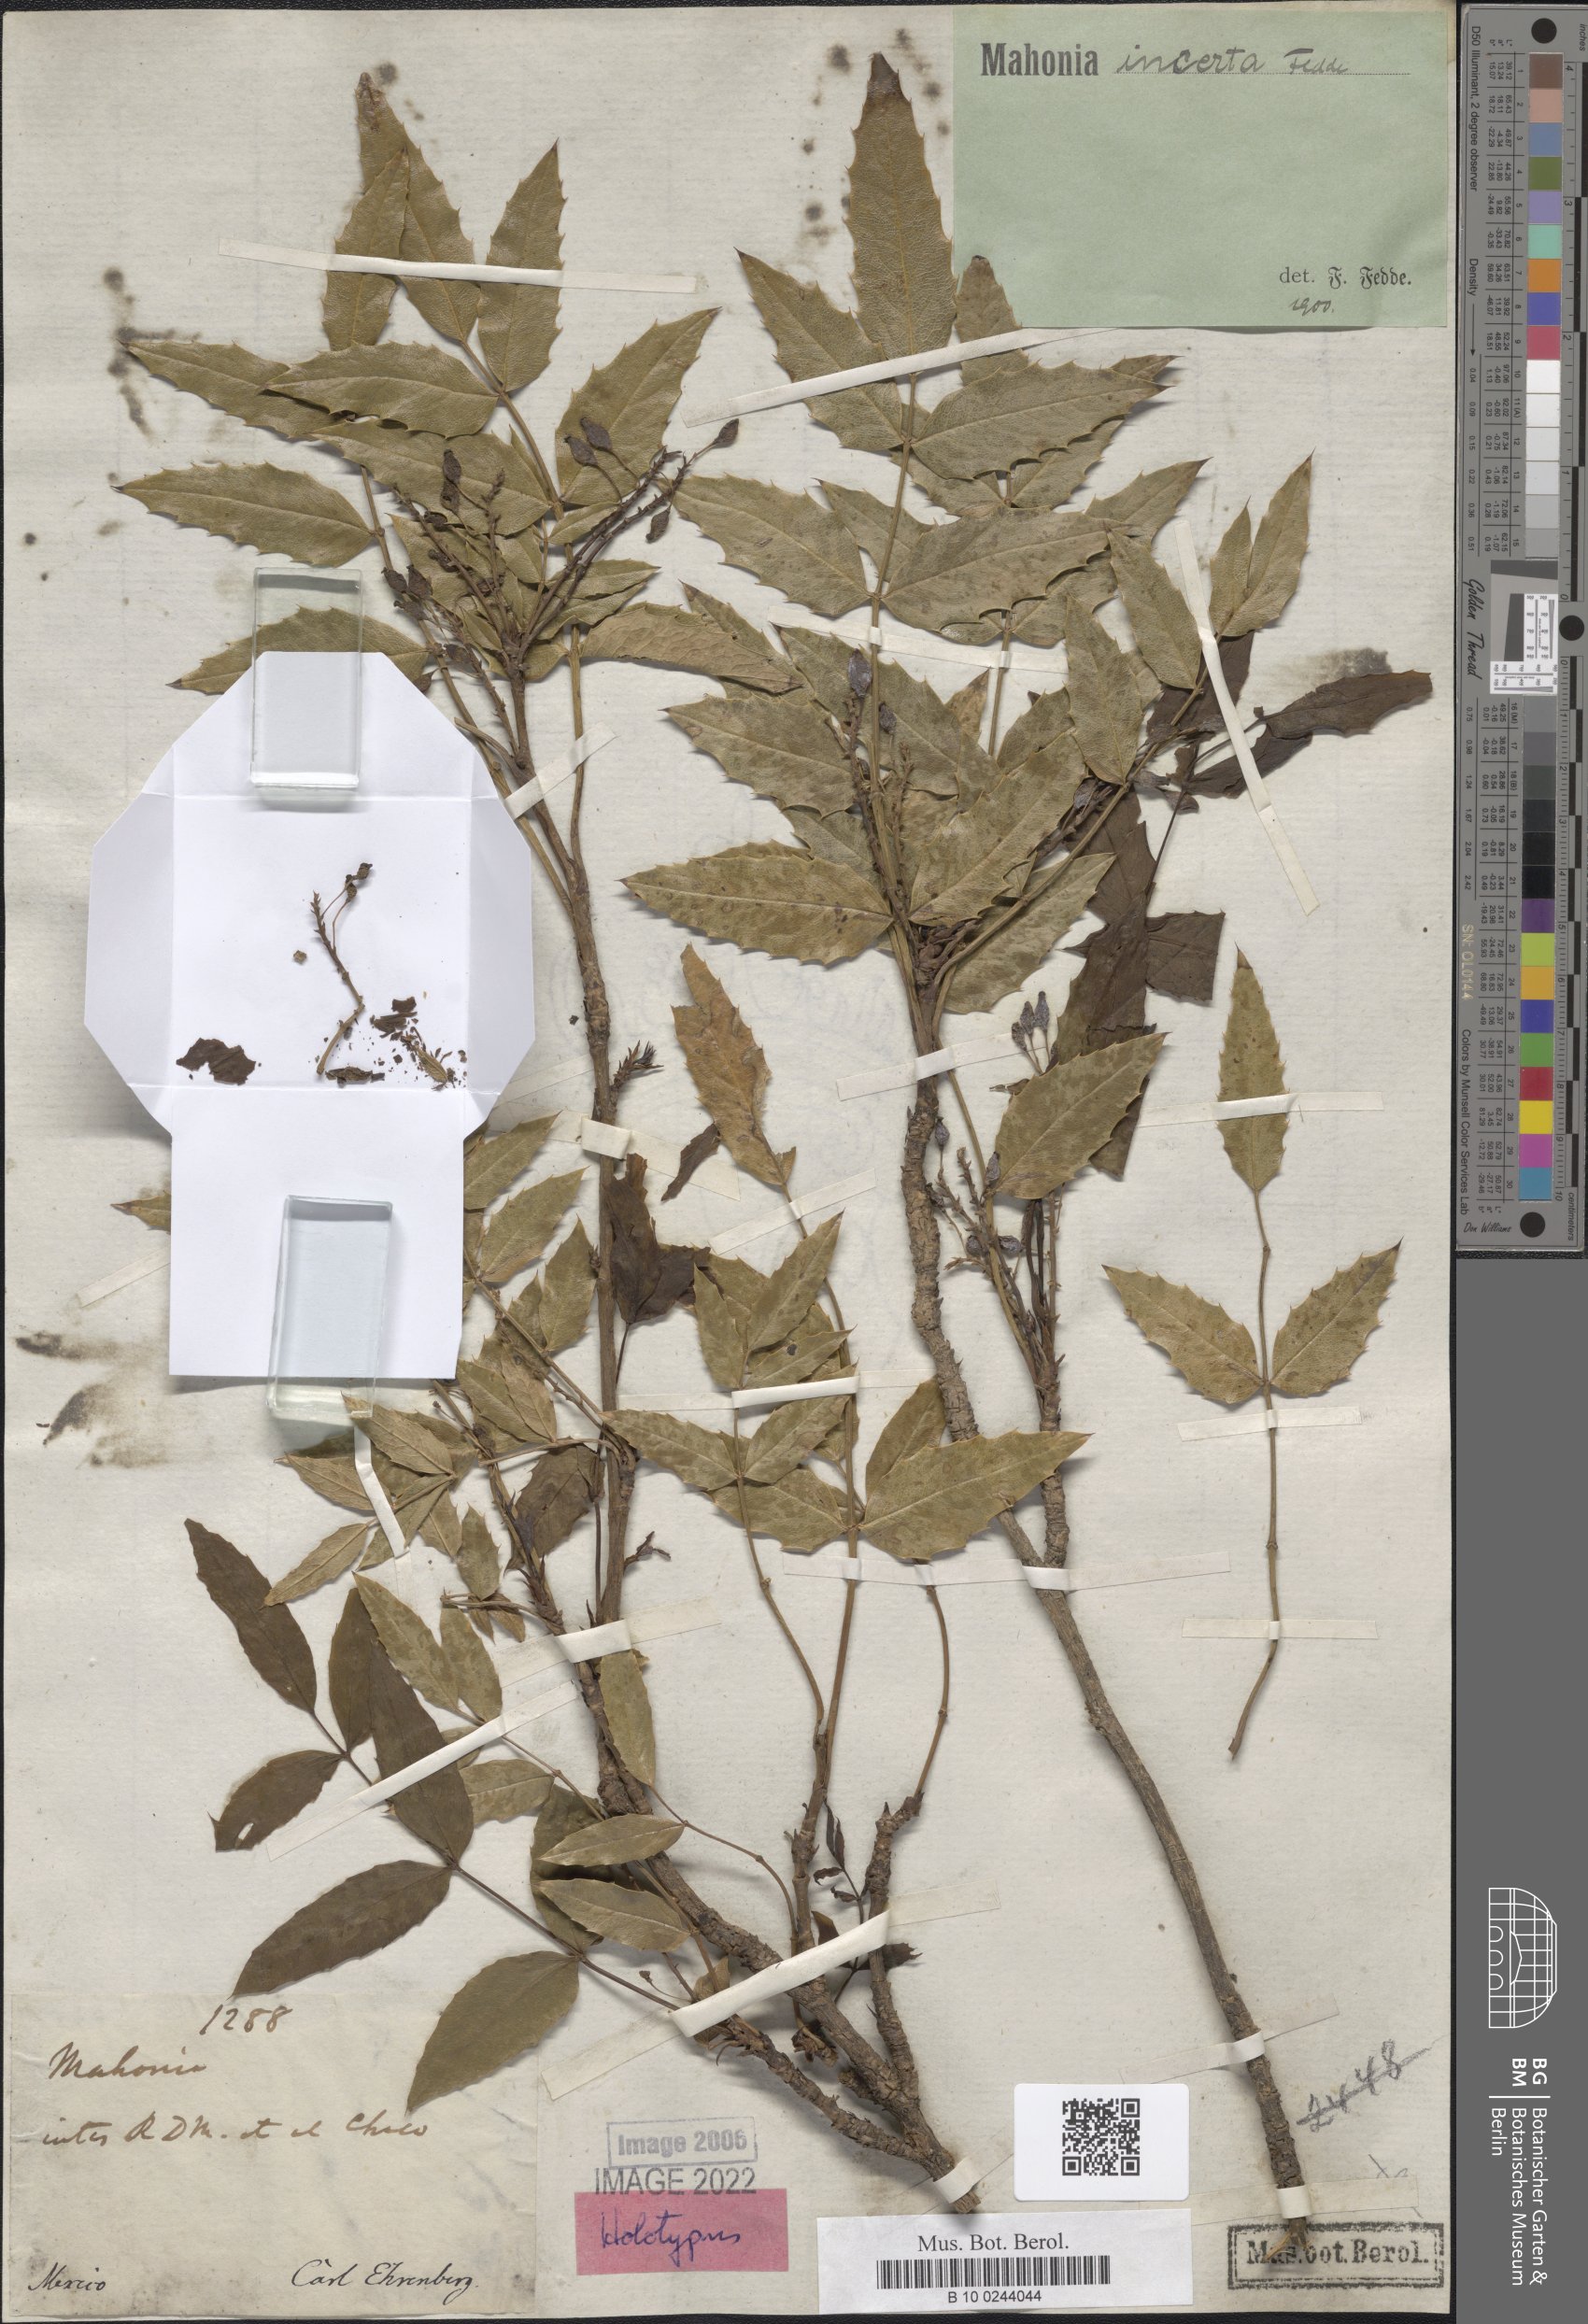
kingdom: Plantae
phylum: Tracheophyta
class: Magnoliopsida
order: Ranunculales
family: Berberidaceae
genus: Mahonia
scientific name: Mahonia incerta
